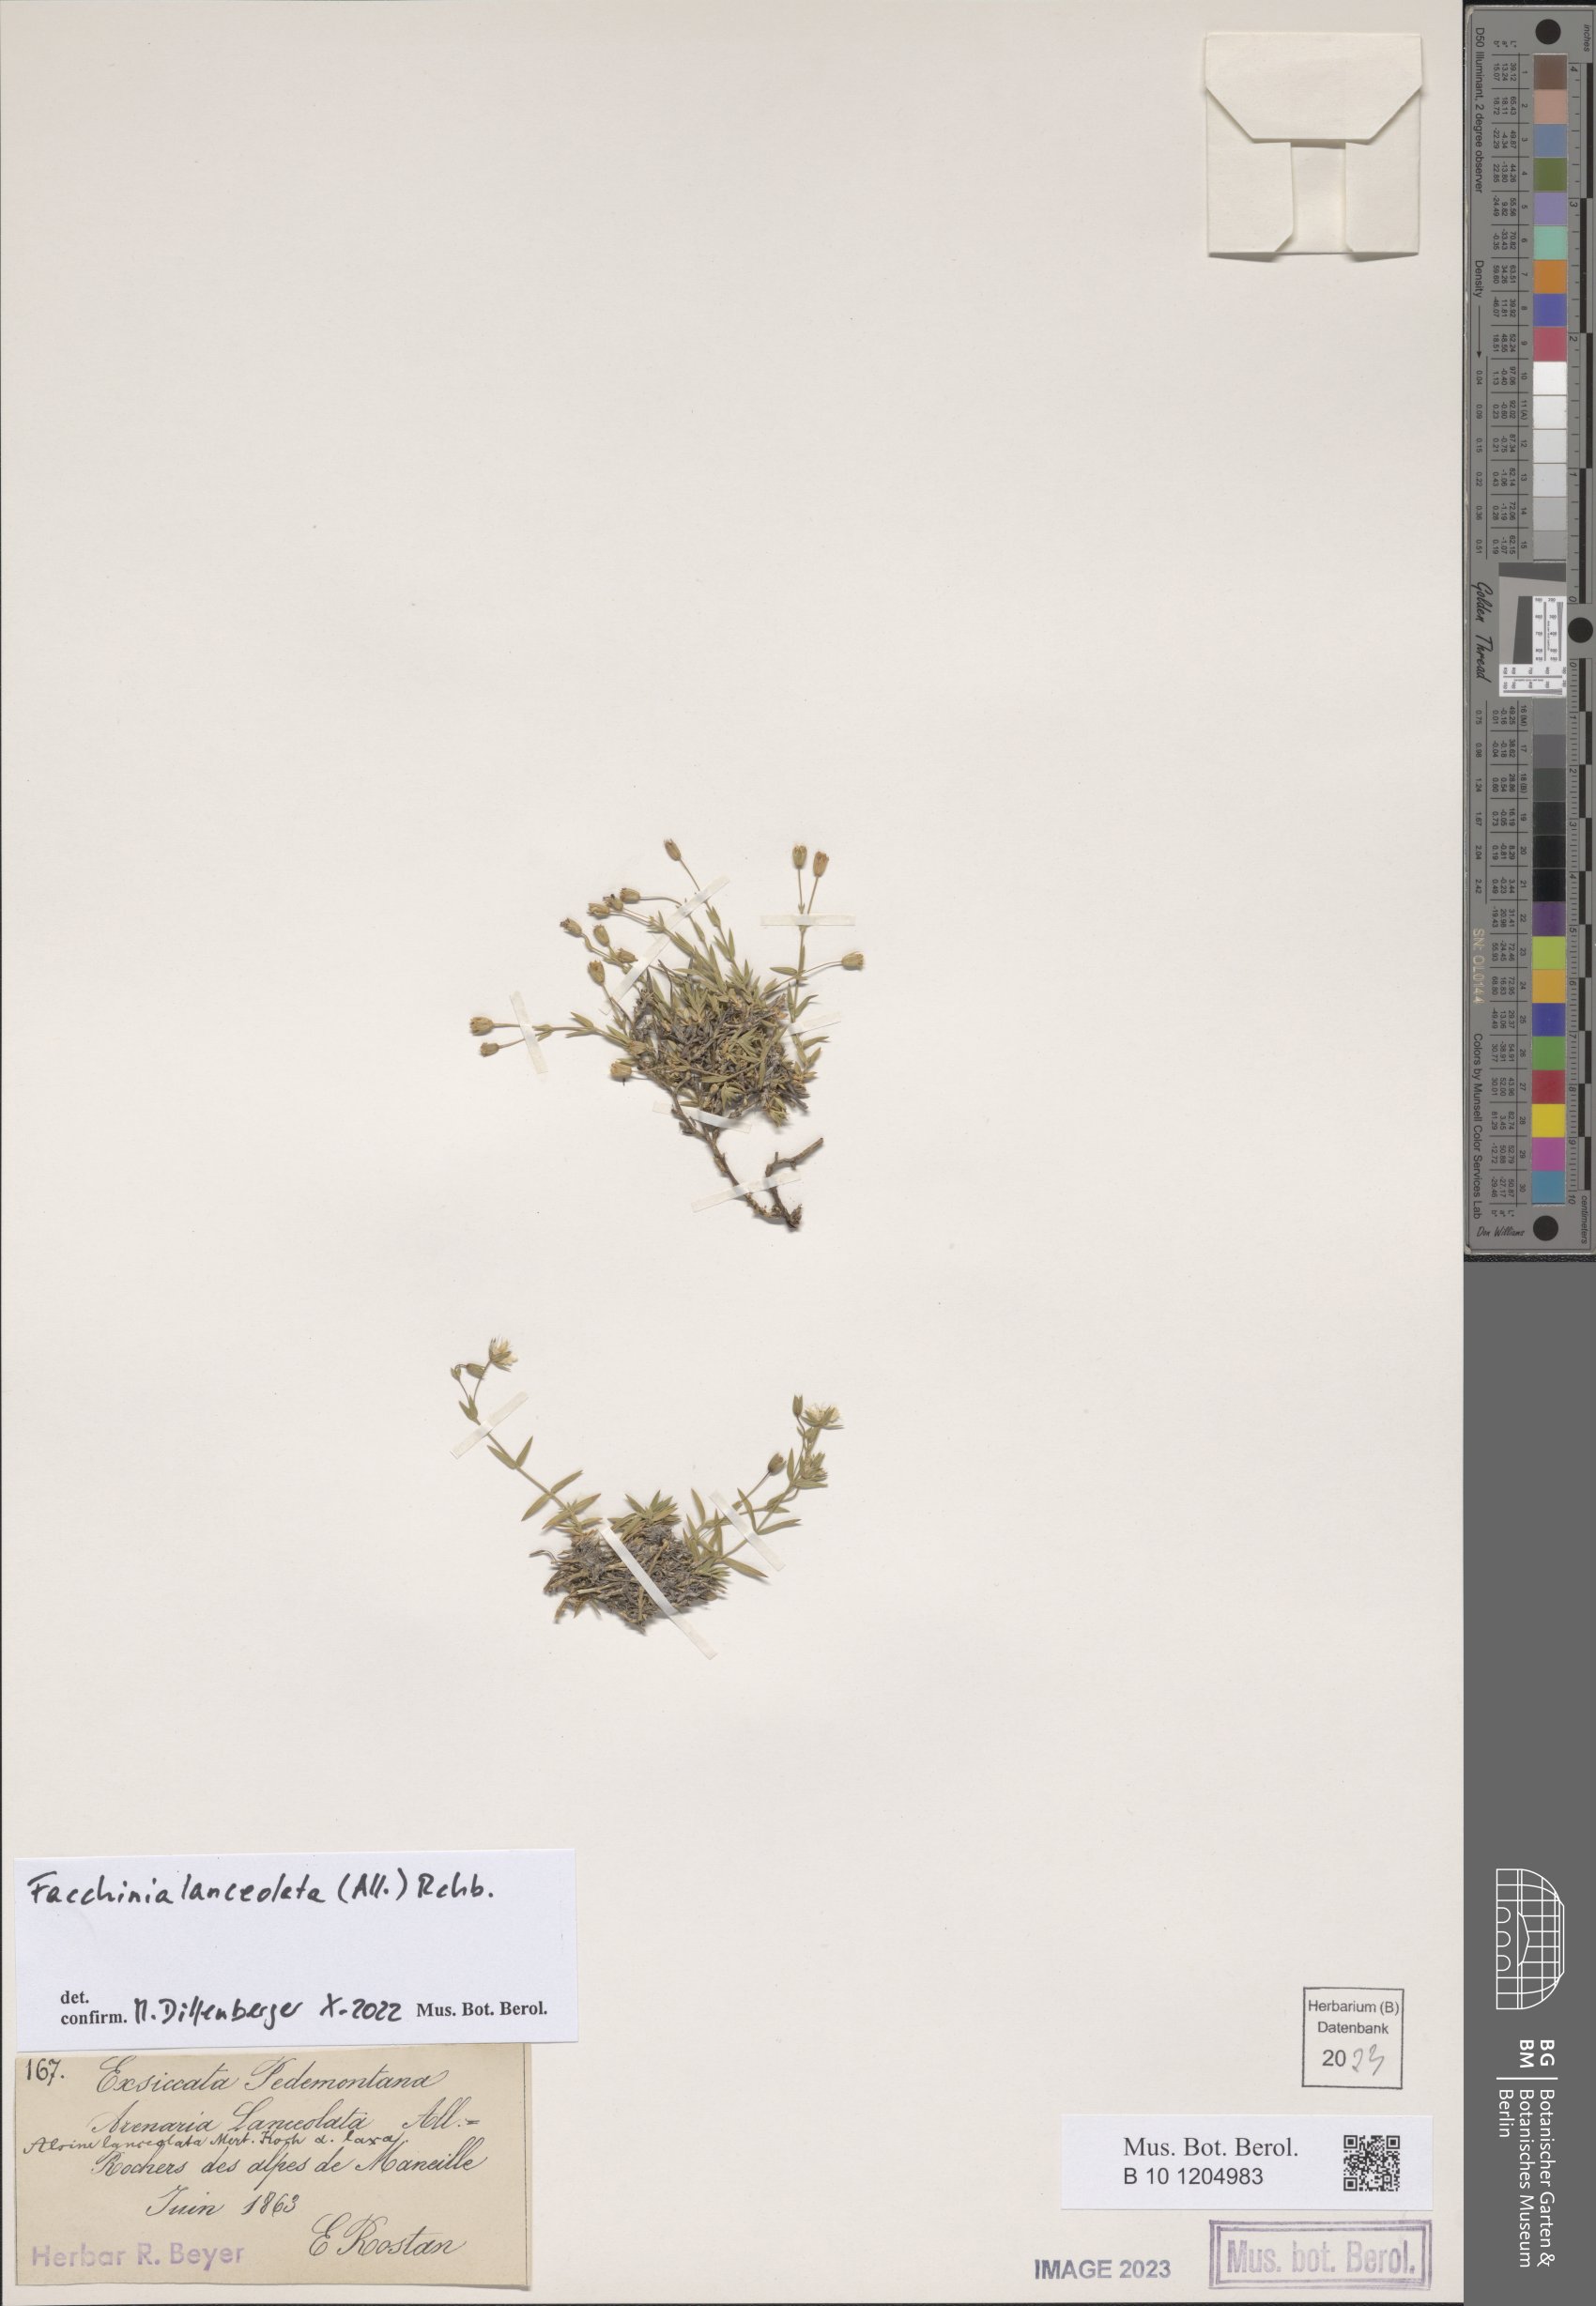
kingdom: Plantae
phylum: Tracheophyta
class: Magnoliopsida
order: Caryophyllales
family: Caryophyllaceae
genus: Facchinia
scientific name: Facchinia lanceolata
